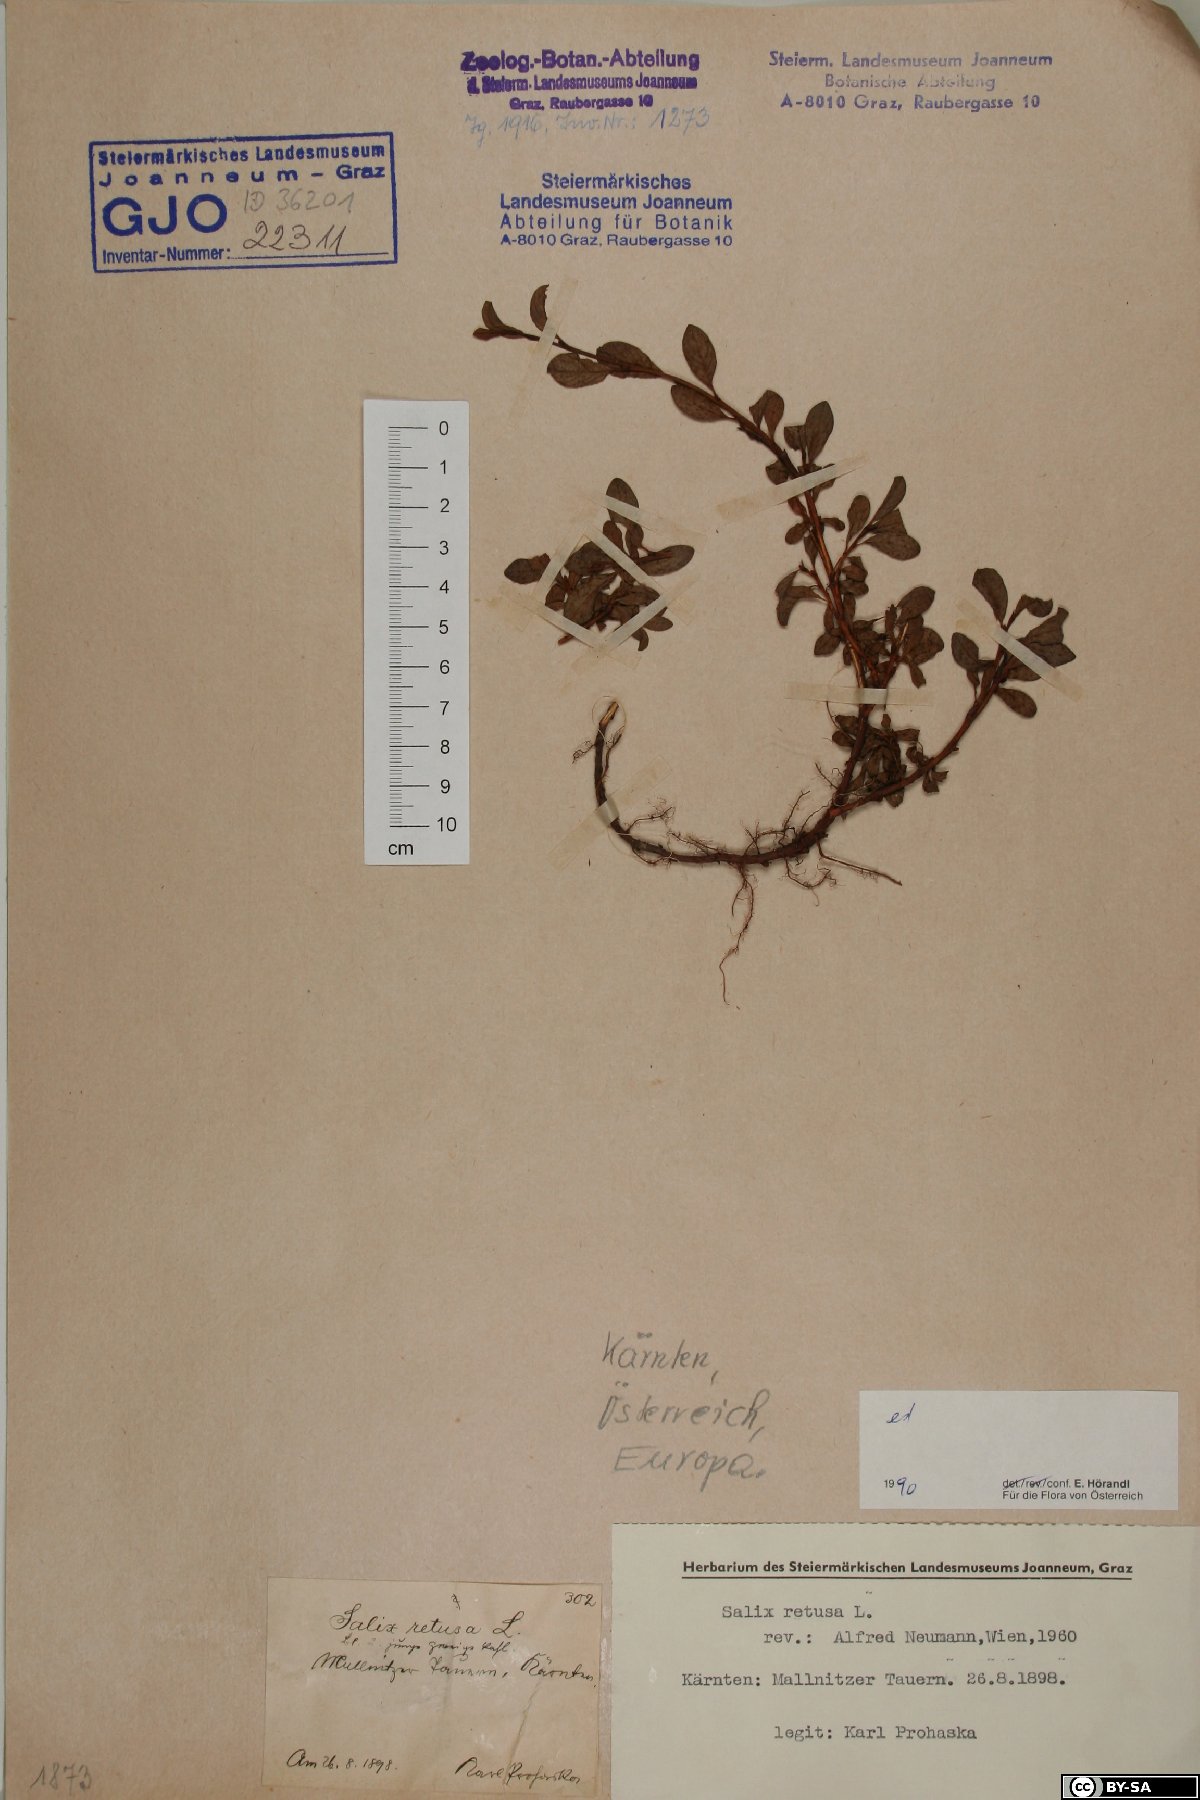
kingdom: Plantae
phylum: Tracheophyta
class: Magnoliopsida
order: Malpighiales
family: Salicaceae
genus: Salix
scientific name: Salix retusa
